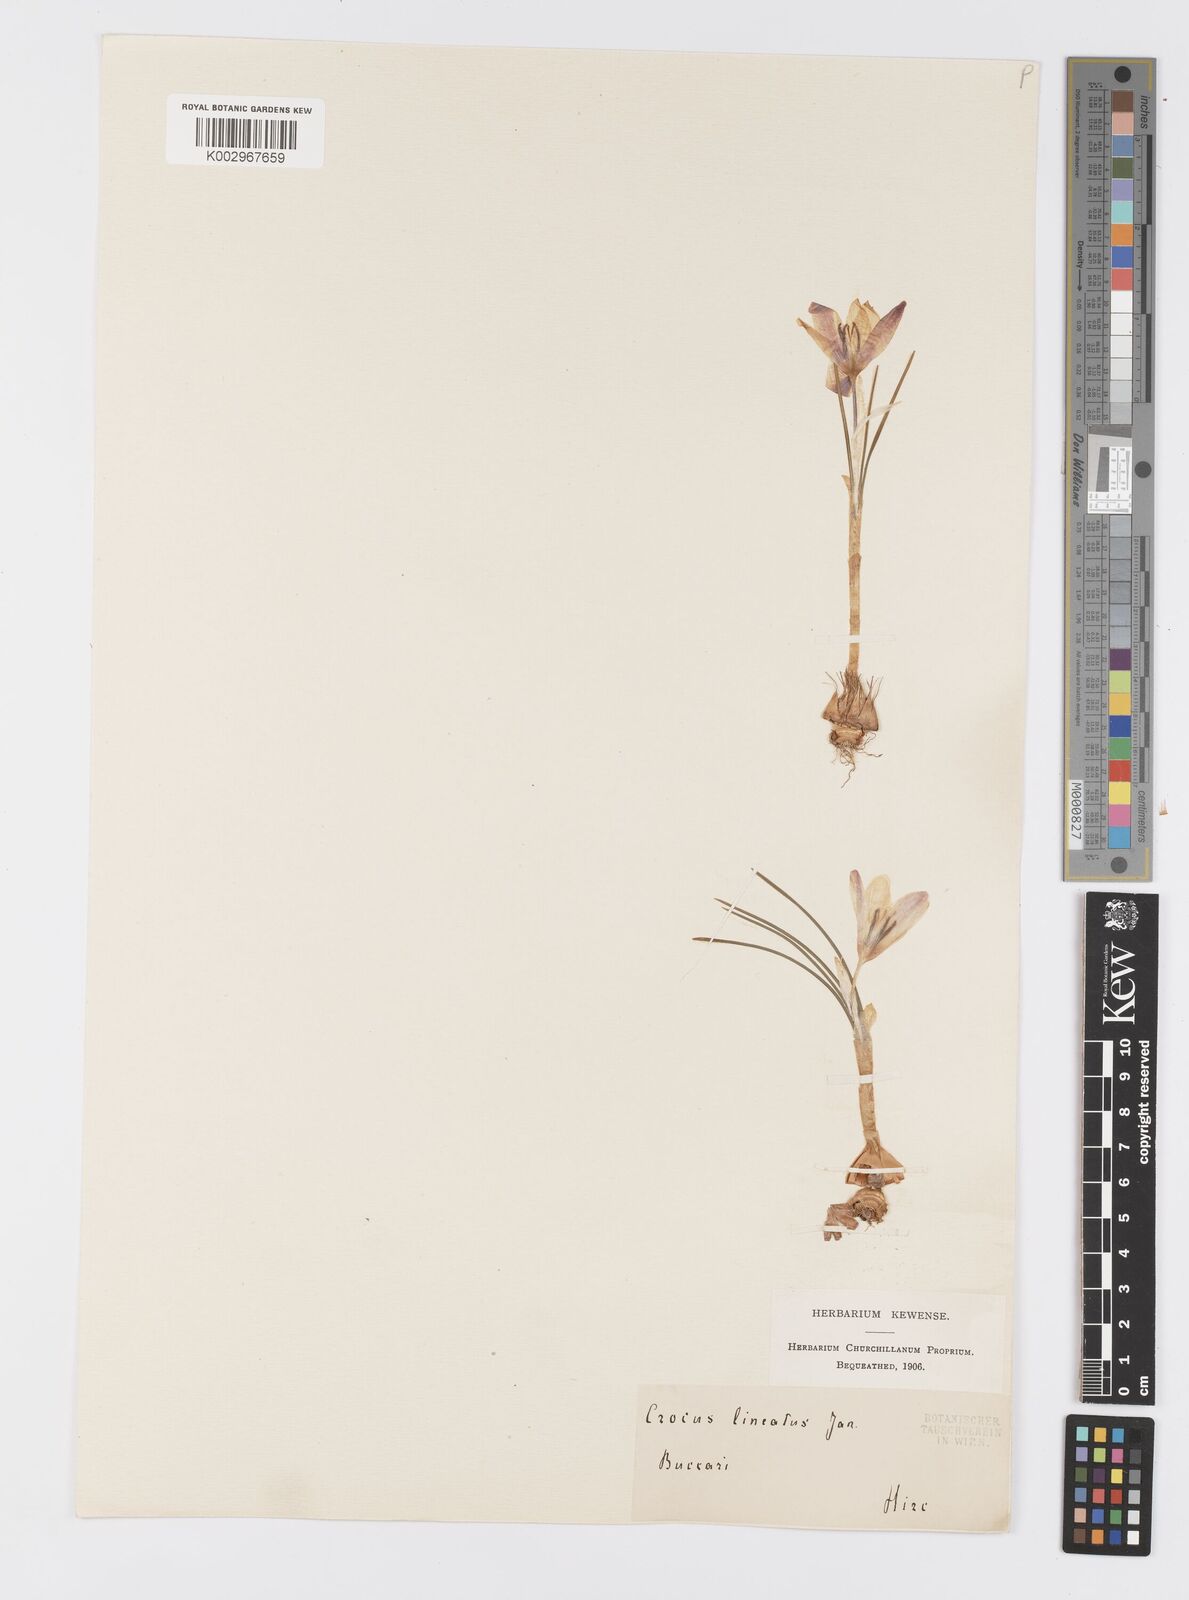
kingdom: Plantae
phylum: Tracheophyta
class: Liliopsida
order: Asparagales
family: Iridaceae
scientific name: Iridaceae
